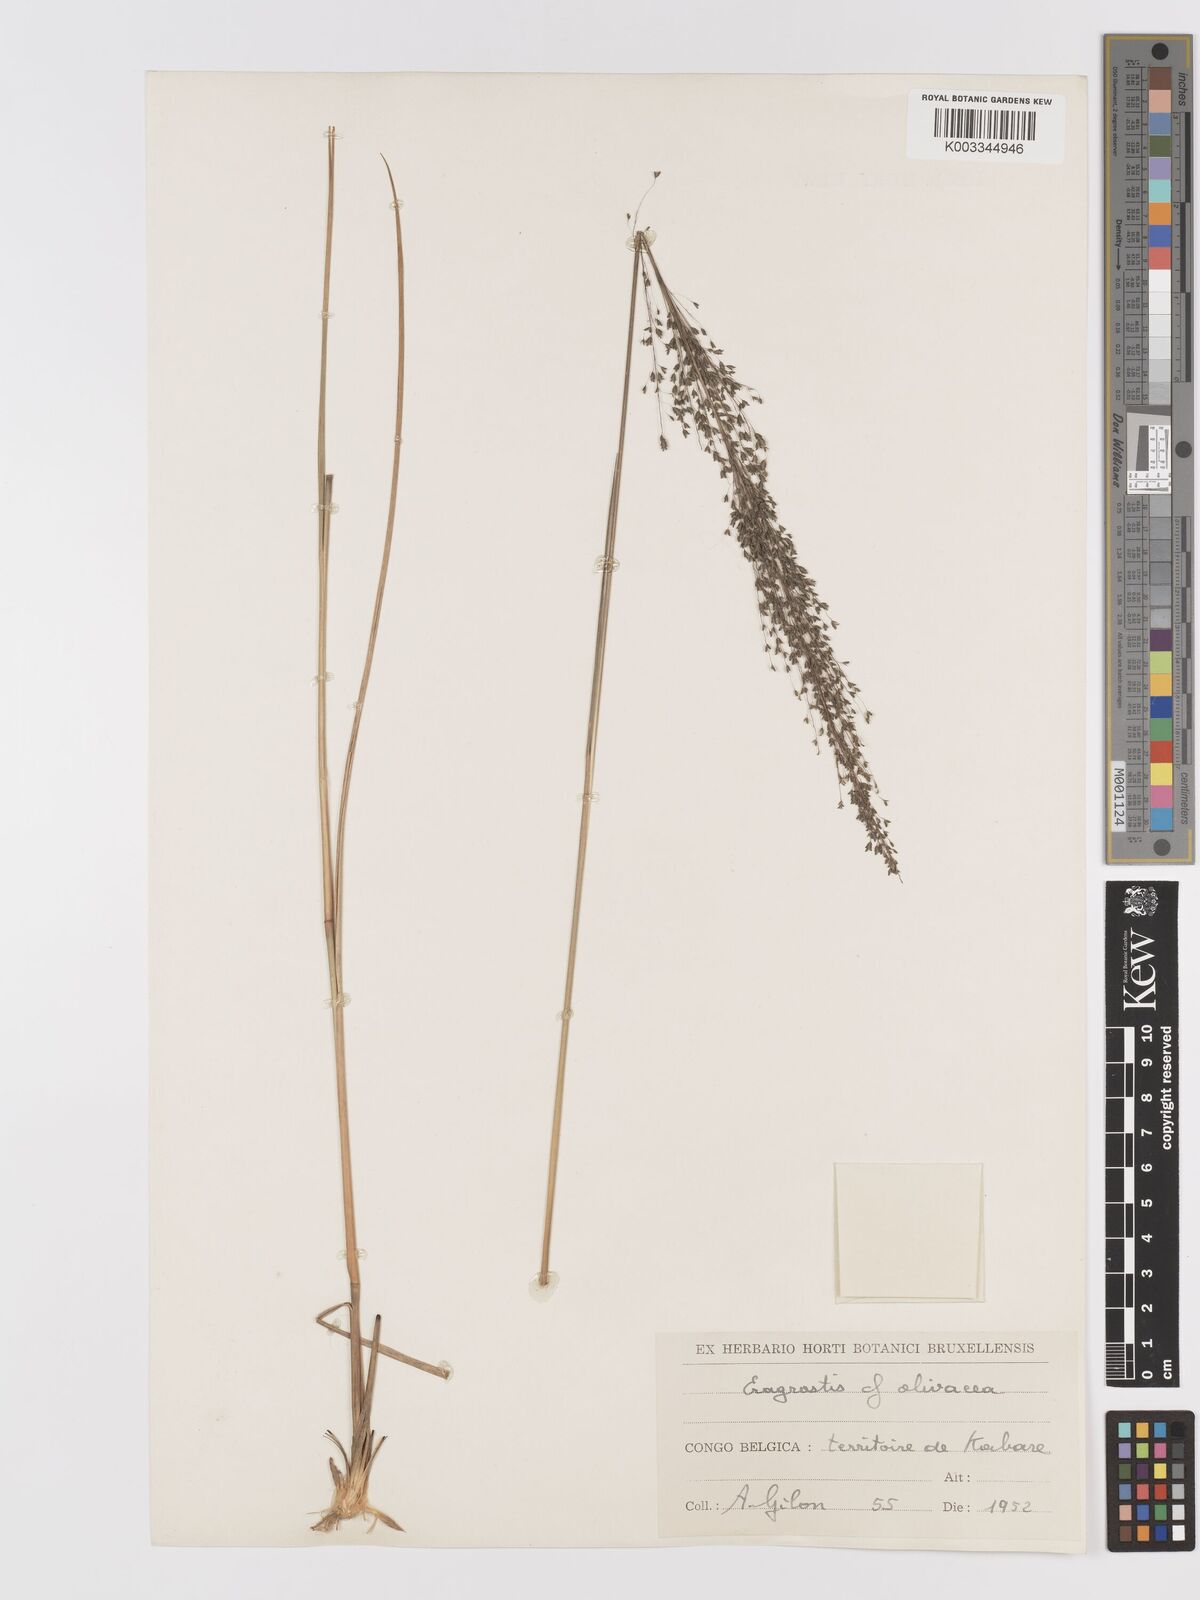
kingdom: Plantae
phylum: Tracheophyta
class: Liliopsida
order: Poales
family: Poaceae
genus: Eragrostis
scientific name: Eragrostis mollior
